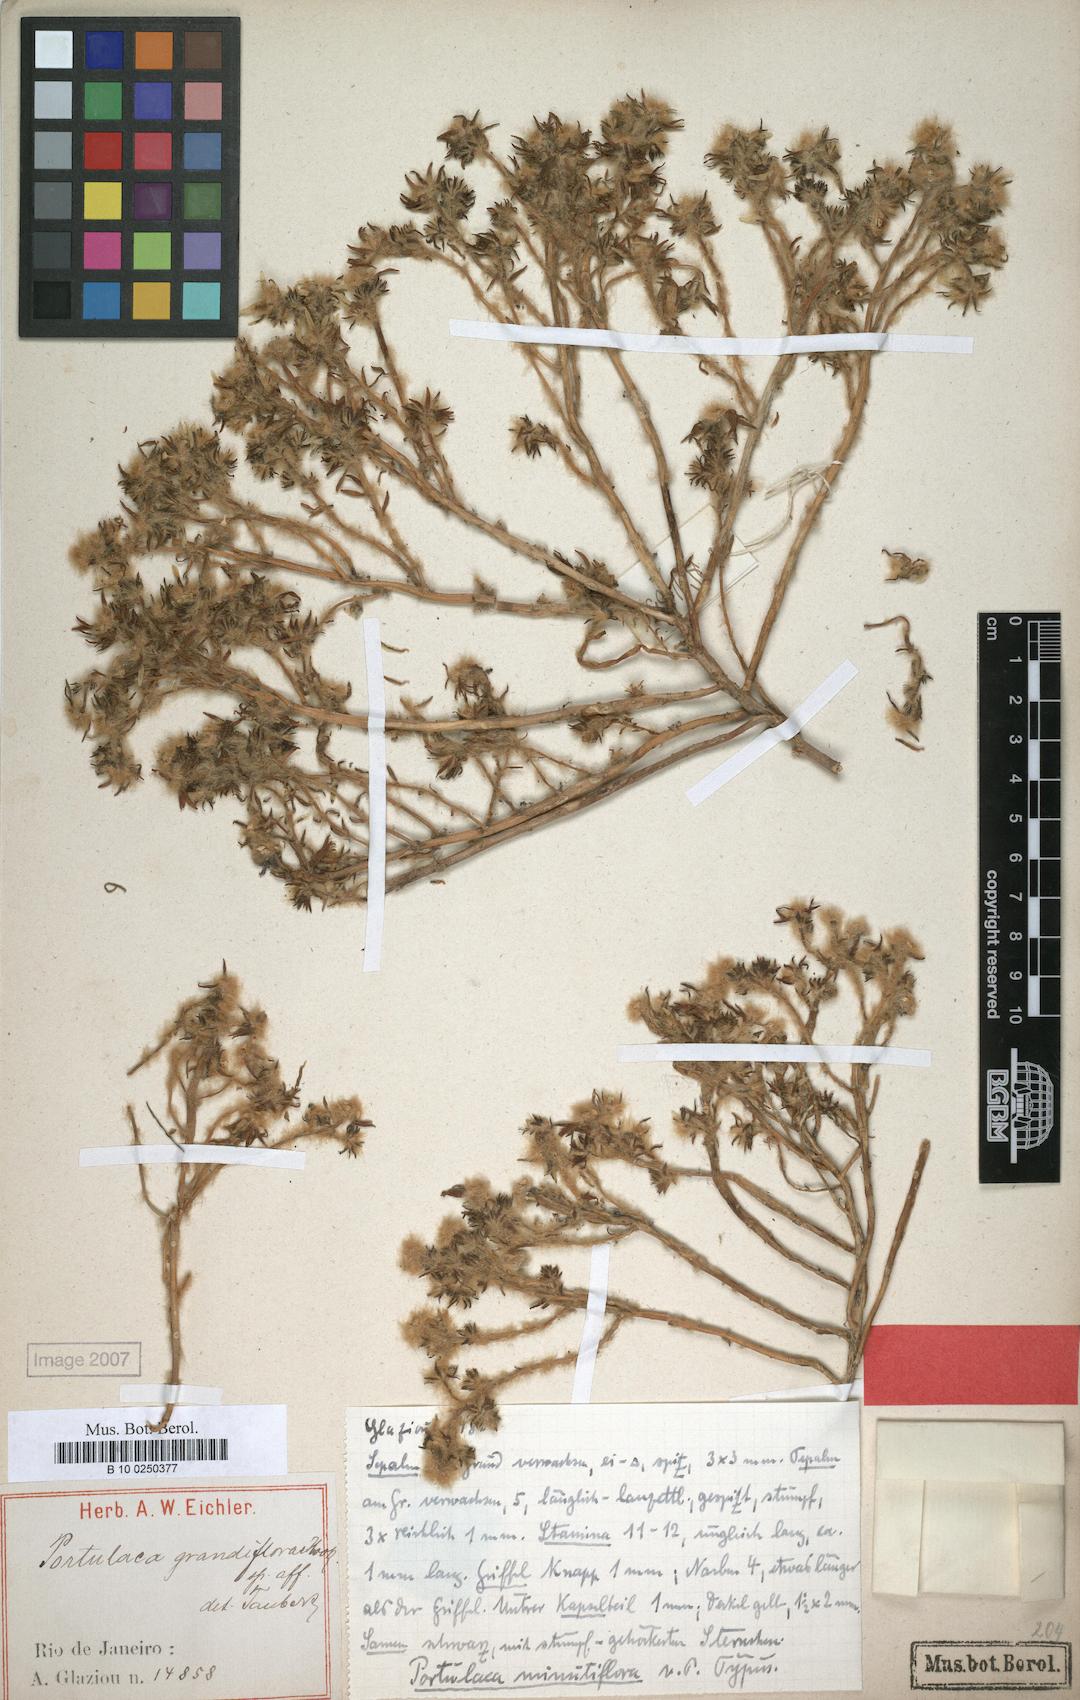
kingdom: Plantae
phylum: Tracheophyta
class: Magnoliopsida
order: Caryophyllales
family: Portulacaceae
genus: Portulaca
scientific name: Portulaca halimoides
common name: Silk cotton purslane
